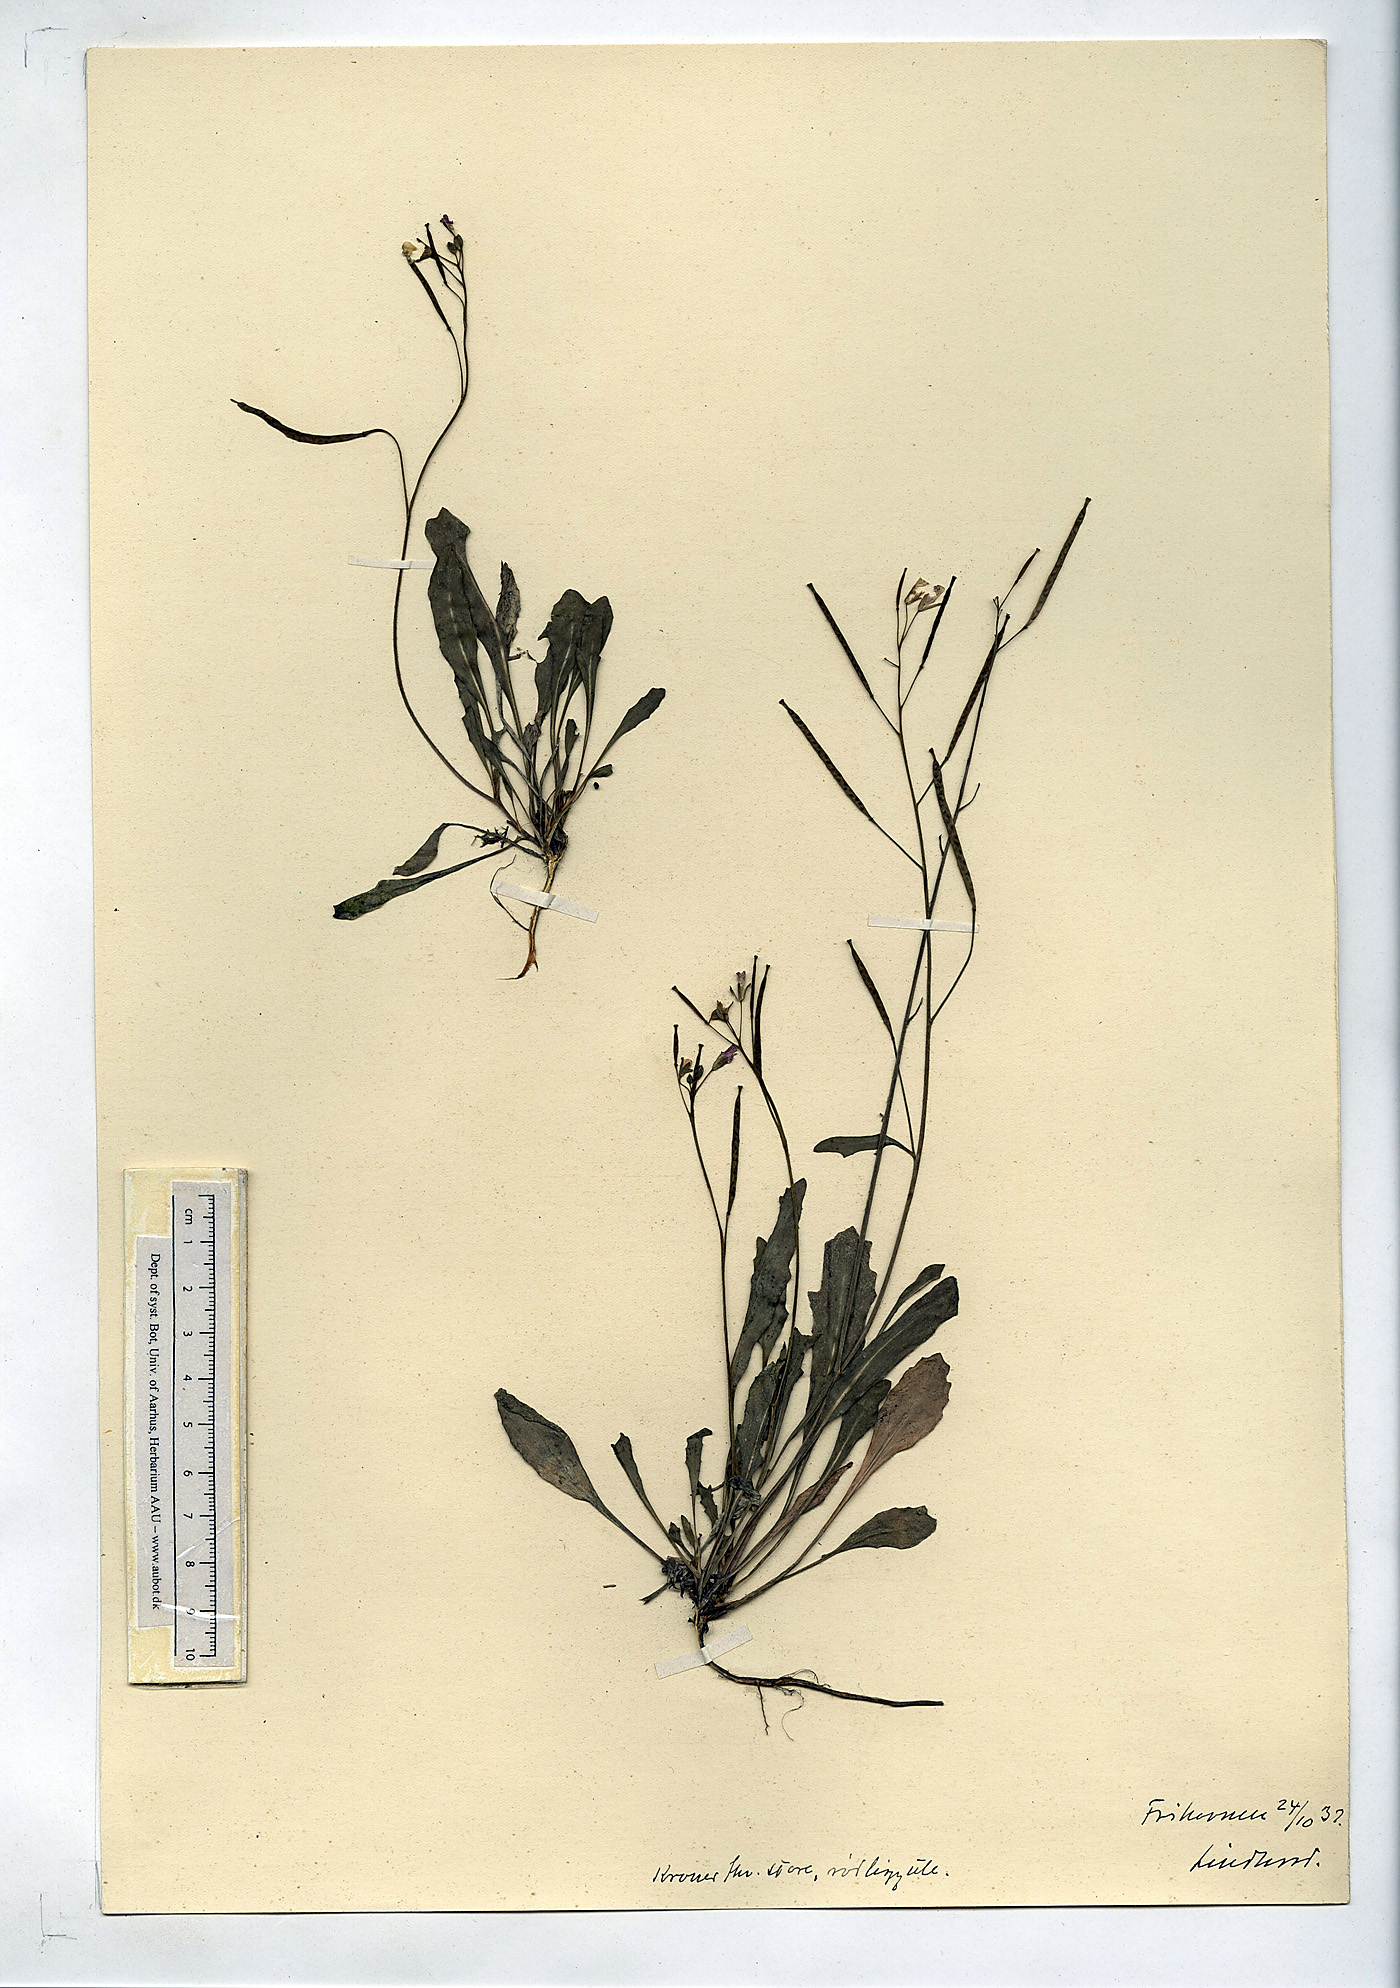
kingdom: Plantae
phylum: Tracheophyta
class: Magnoliopsida
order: Brassicales
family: Brassicaceae
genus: Diplotaxis
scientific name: Diplotaxis muralis
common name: Annual wall-rocket
